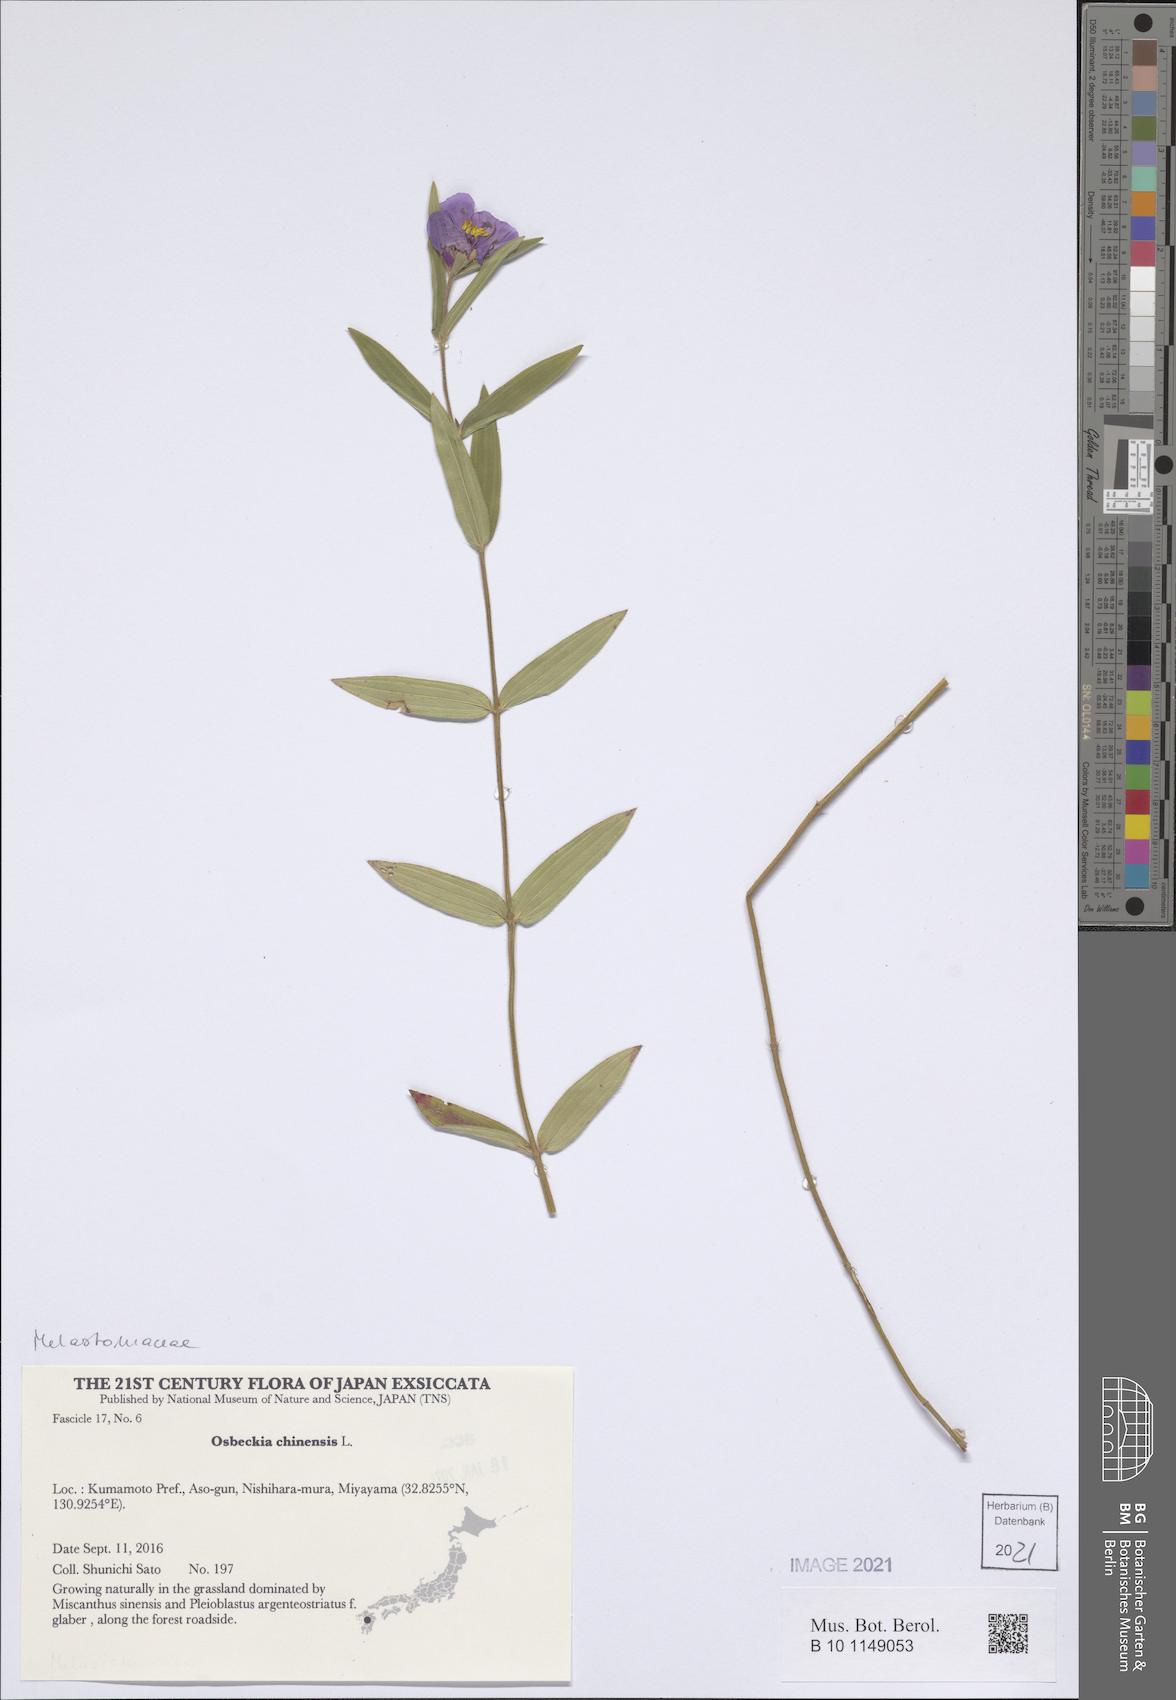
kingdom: Plantae
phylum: Tracheophyta
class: Magnoliopsida
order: Myrtales
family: Melastomataceae
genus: Osbeckia
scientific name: Osbeckia chinensis
